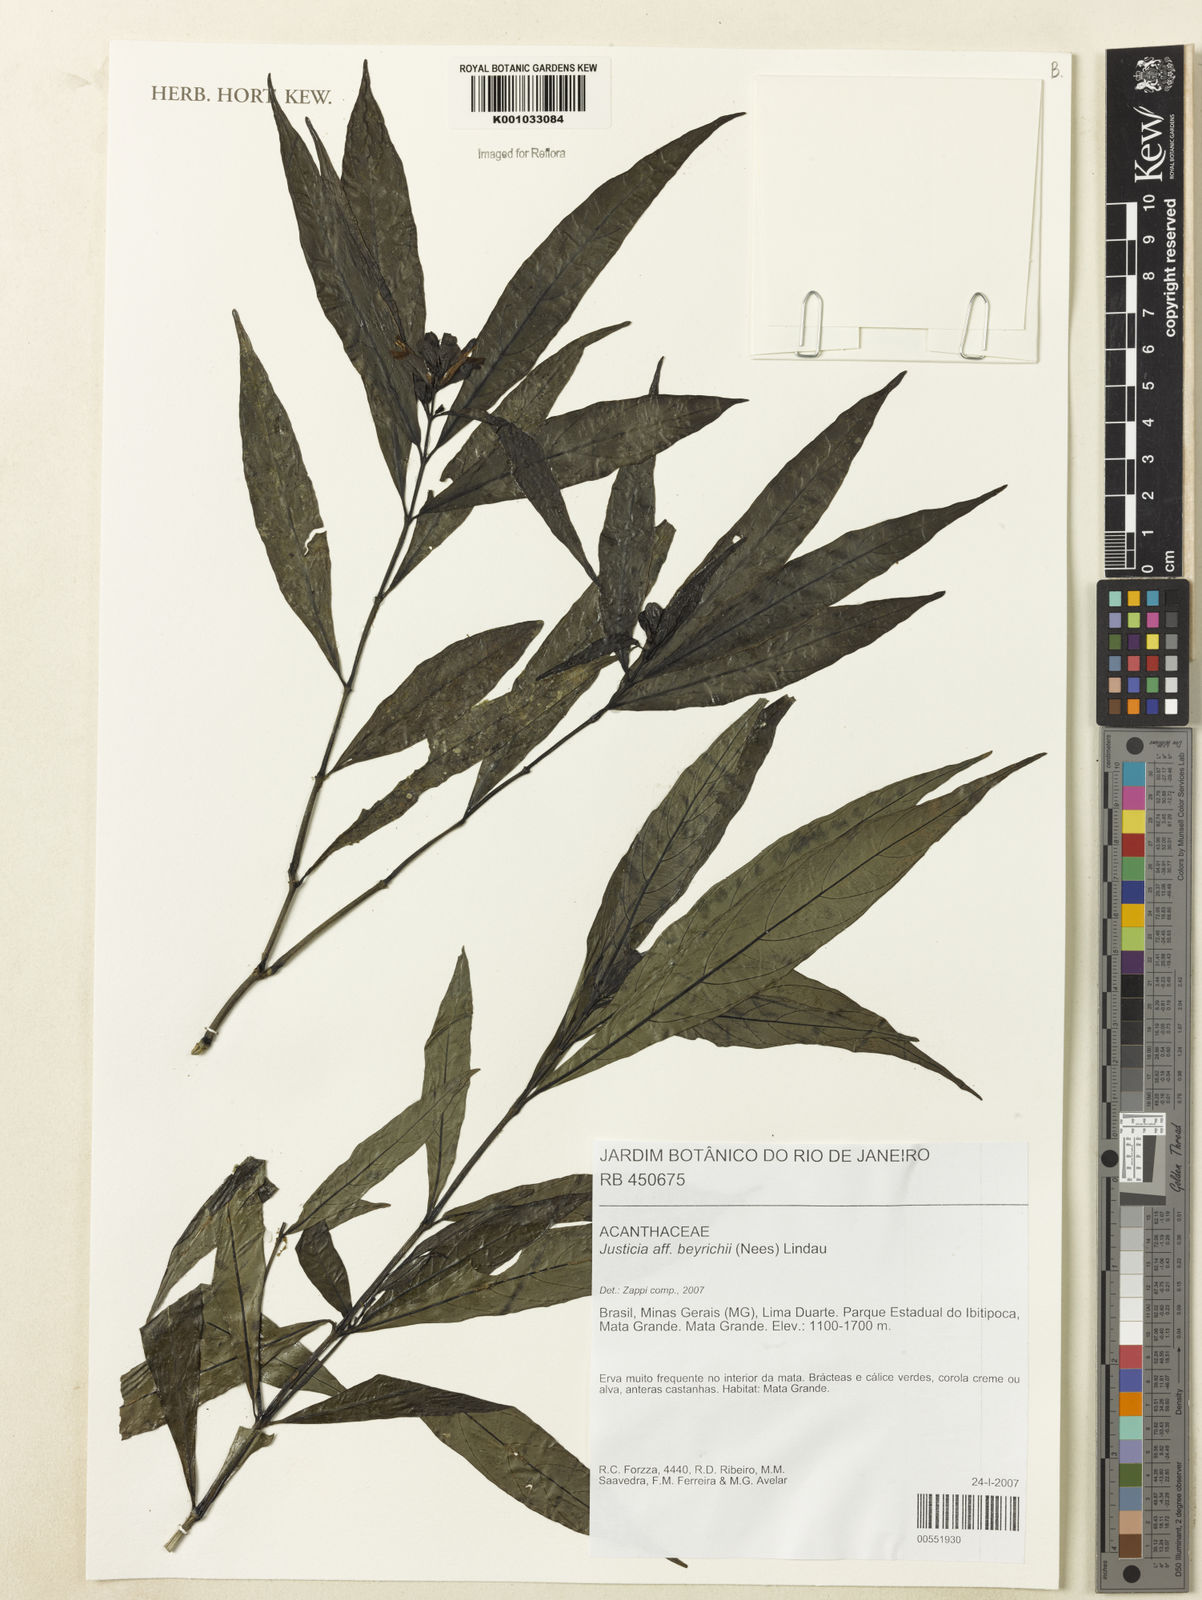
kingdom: Plantae
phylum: Tracheophyta
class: Magnoliopsida
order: Lamiales
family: Acanthaceae
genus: Dianthera
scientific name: Dianthera brasiliensis
